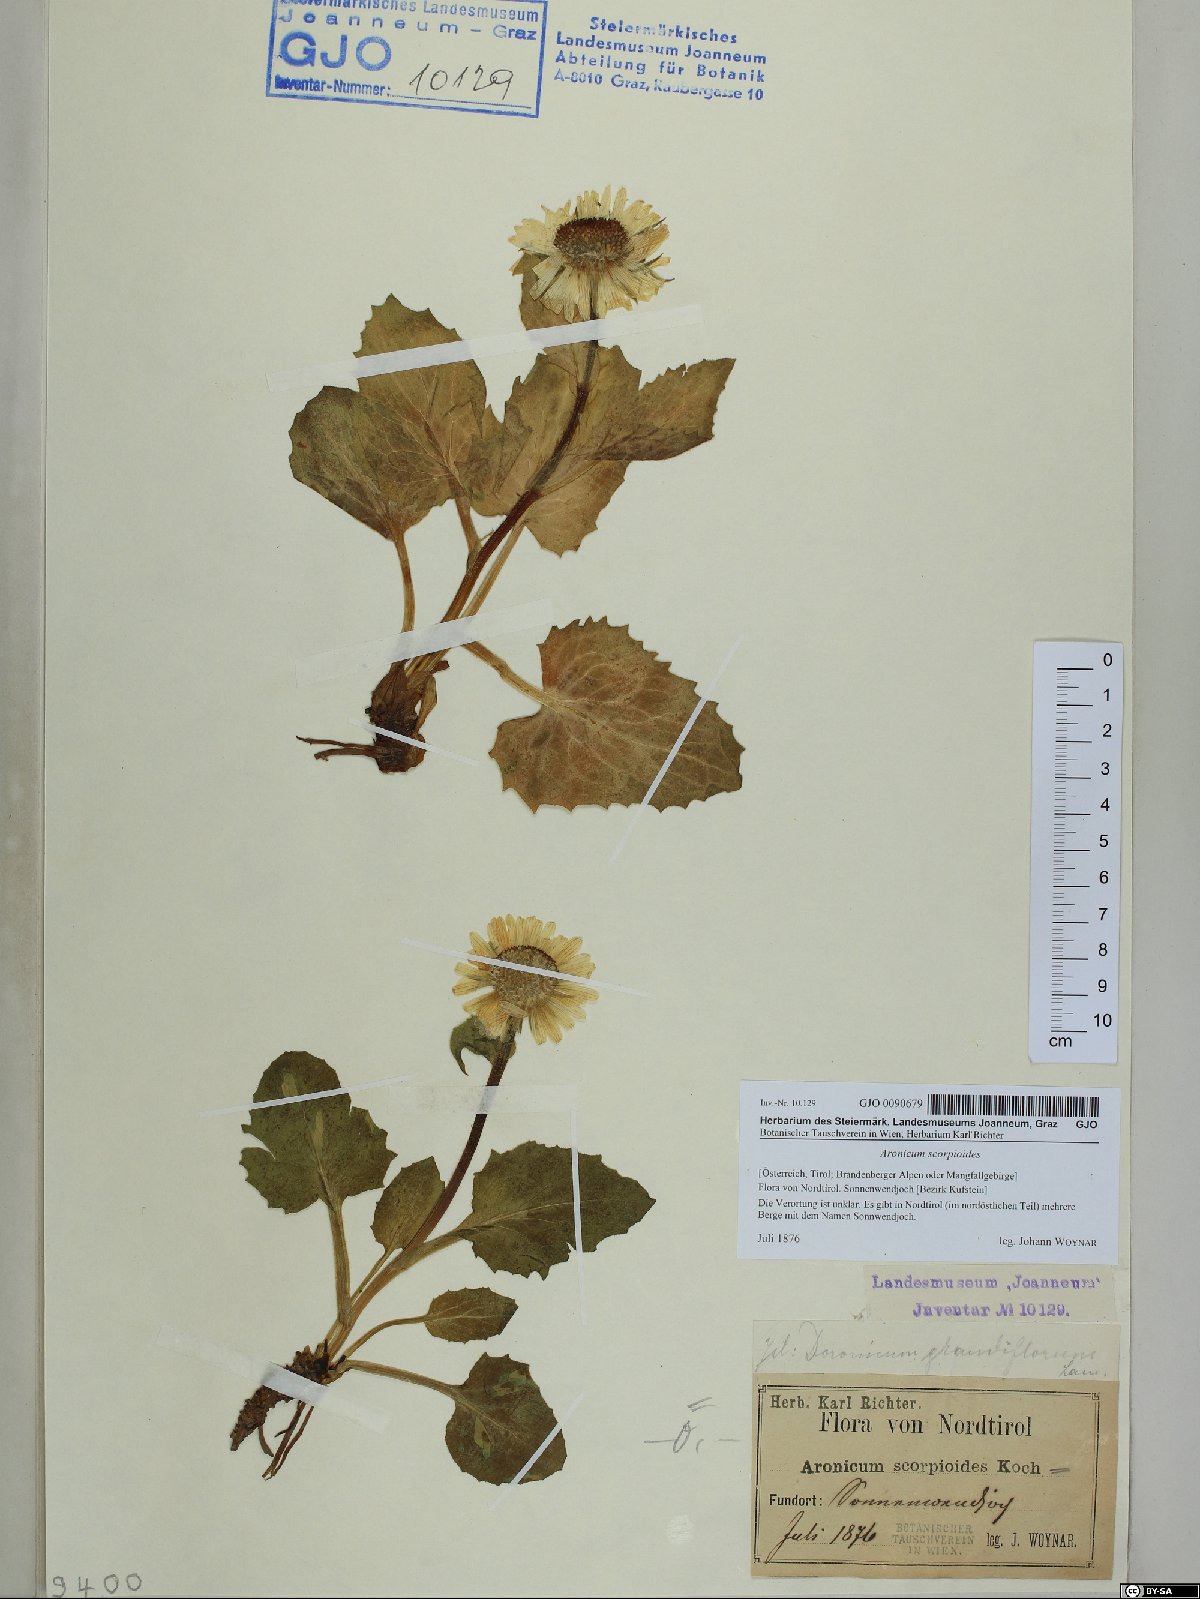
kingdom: Plantae
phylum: Tracheophyta
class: Magnoliopsida
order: Asterales
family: Asteraceae
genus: Doronicum
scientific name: Doronicum grandiflorum
